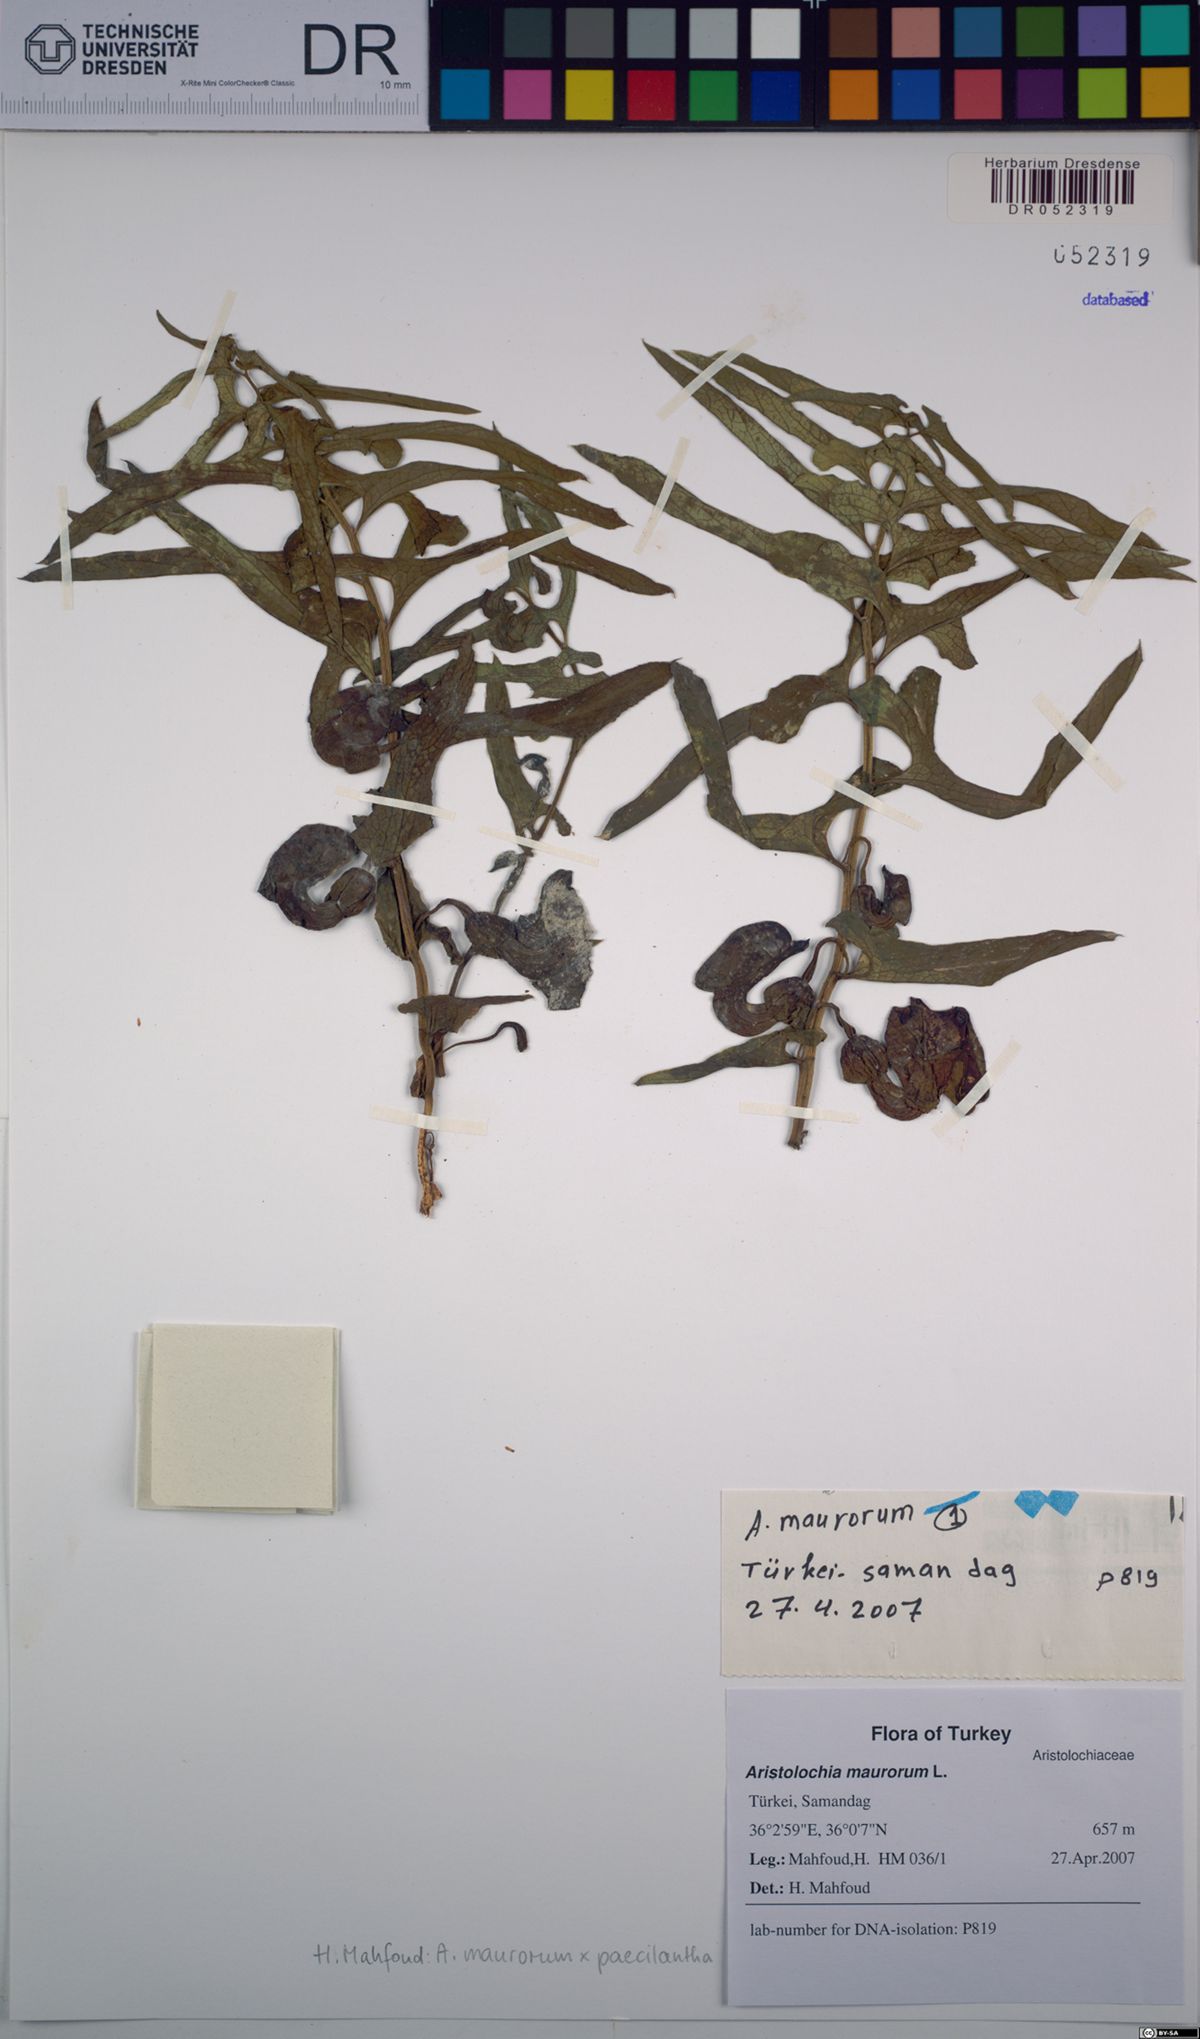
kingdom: Plantae
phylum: Tracheophyta
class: Magnoliopsida
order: Piperales
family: Aristolochiaceae
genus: Aristolochia
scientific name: Aristolochia maurorum
